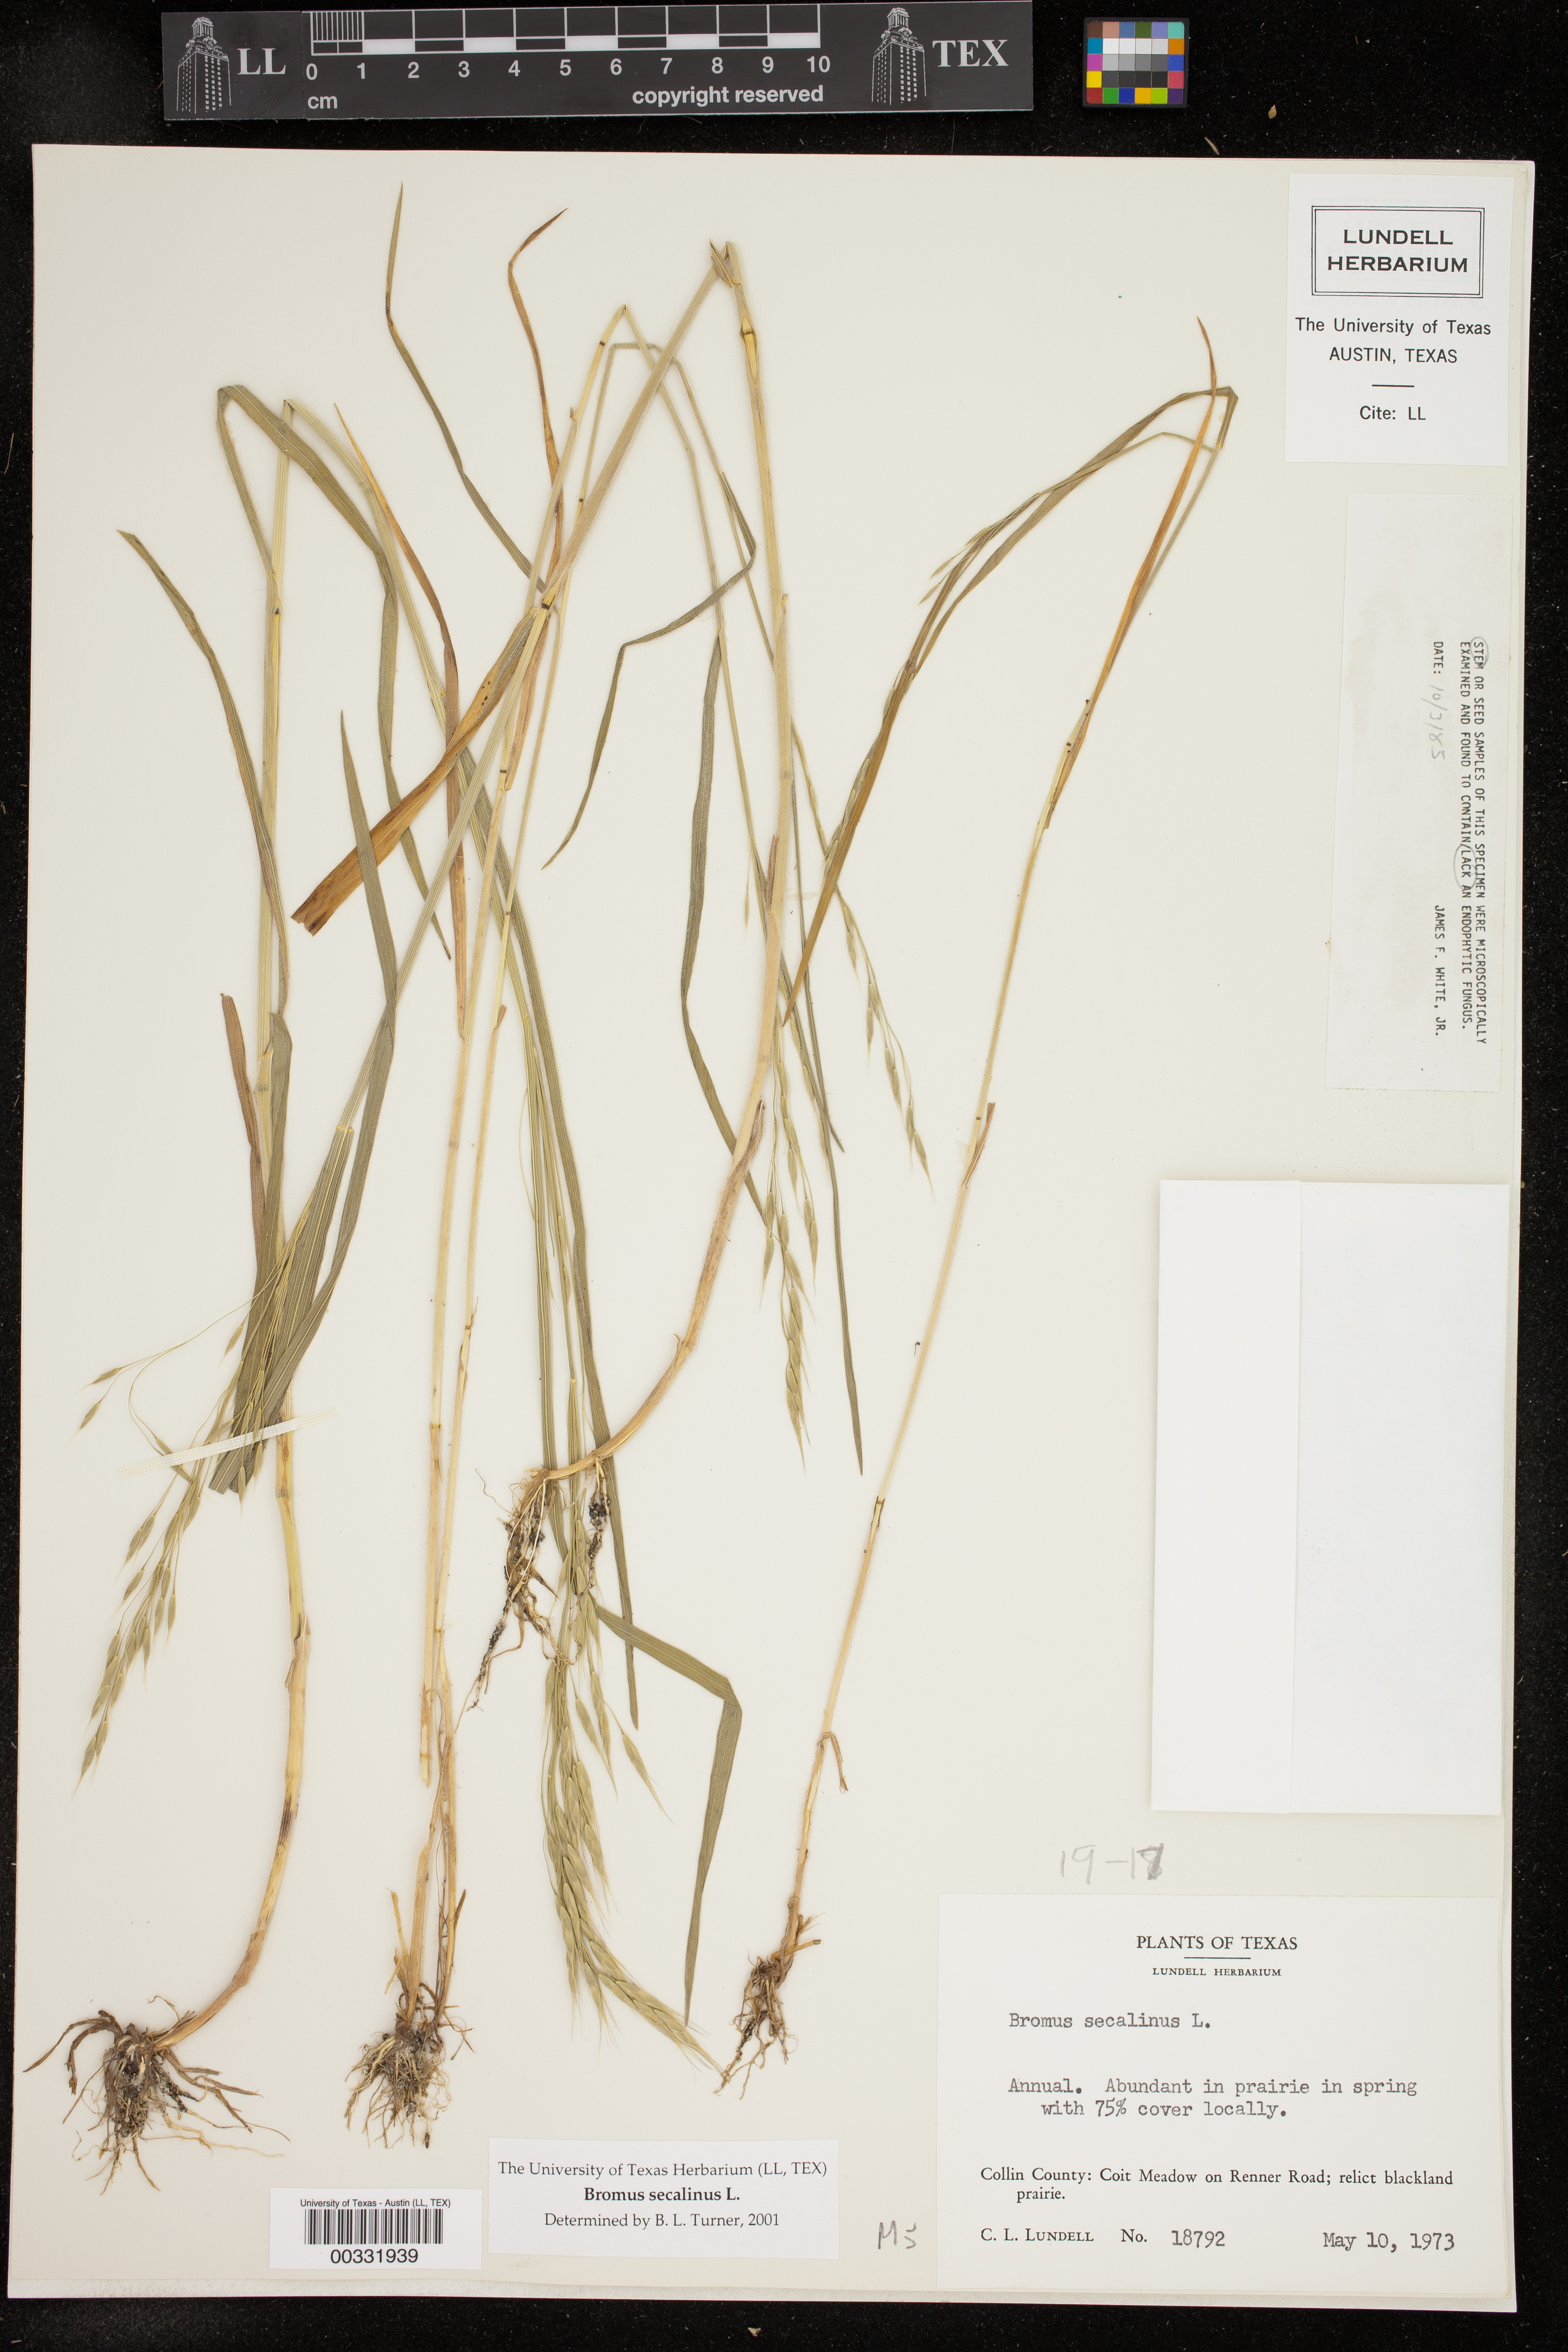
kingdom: Plantae
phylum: Tracheophyta
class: Liliopsida
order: Poales
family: Poaceae
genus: Bromus
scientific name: Bromus secalinus
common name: Rye brome
